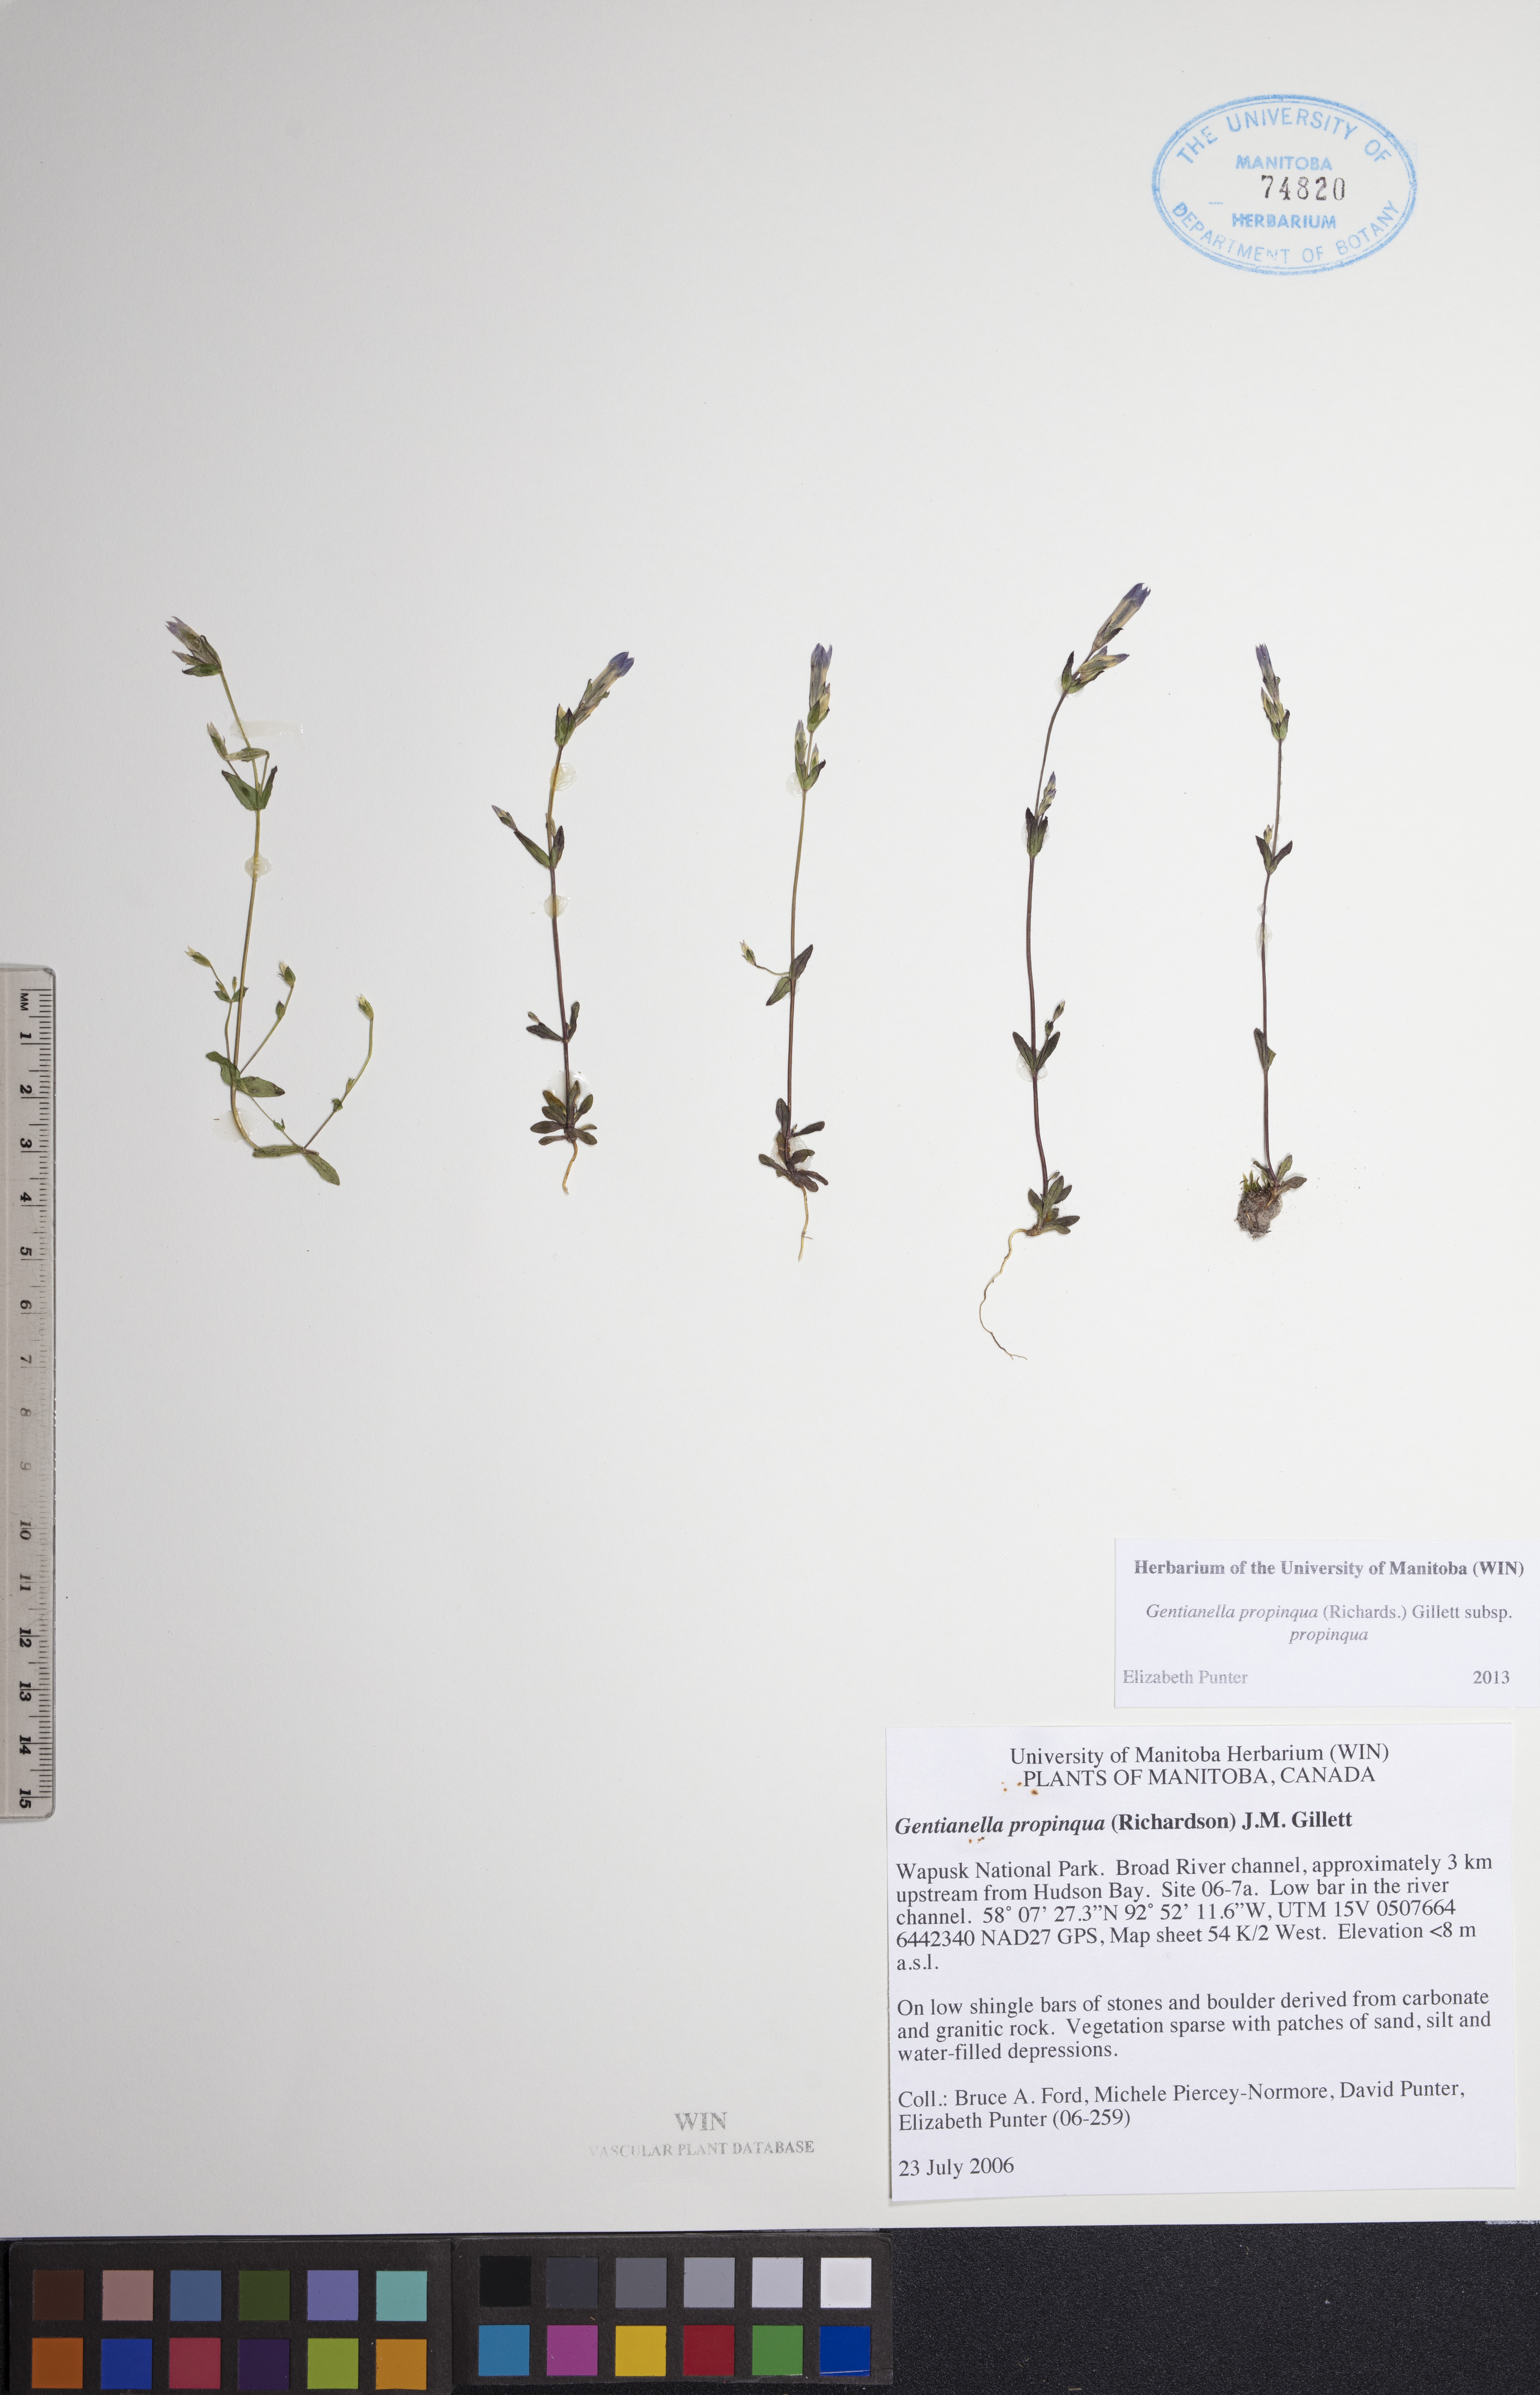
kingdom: Plantae
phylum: Tracheophyta
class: Magnoliopsida
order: Gentianales
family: Gentianaceae
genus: Gentianella
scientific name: Gentianella propinqua
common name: Four-parted dwarf-gentian
